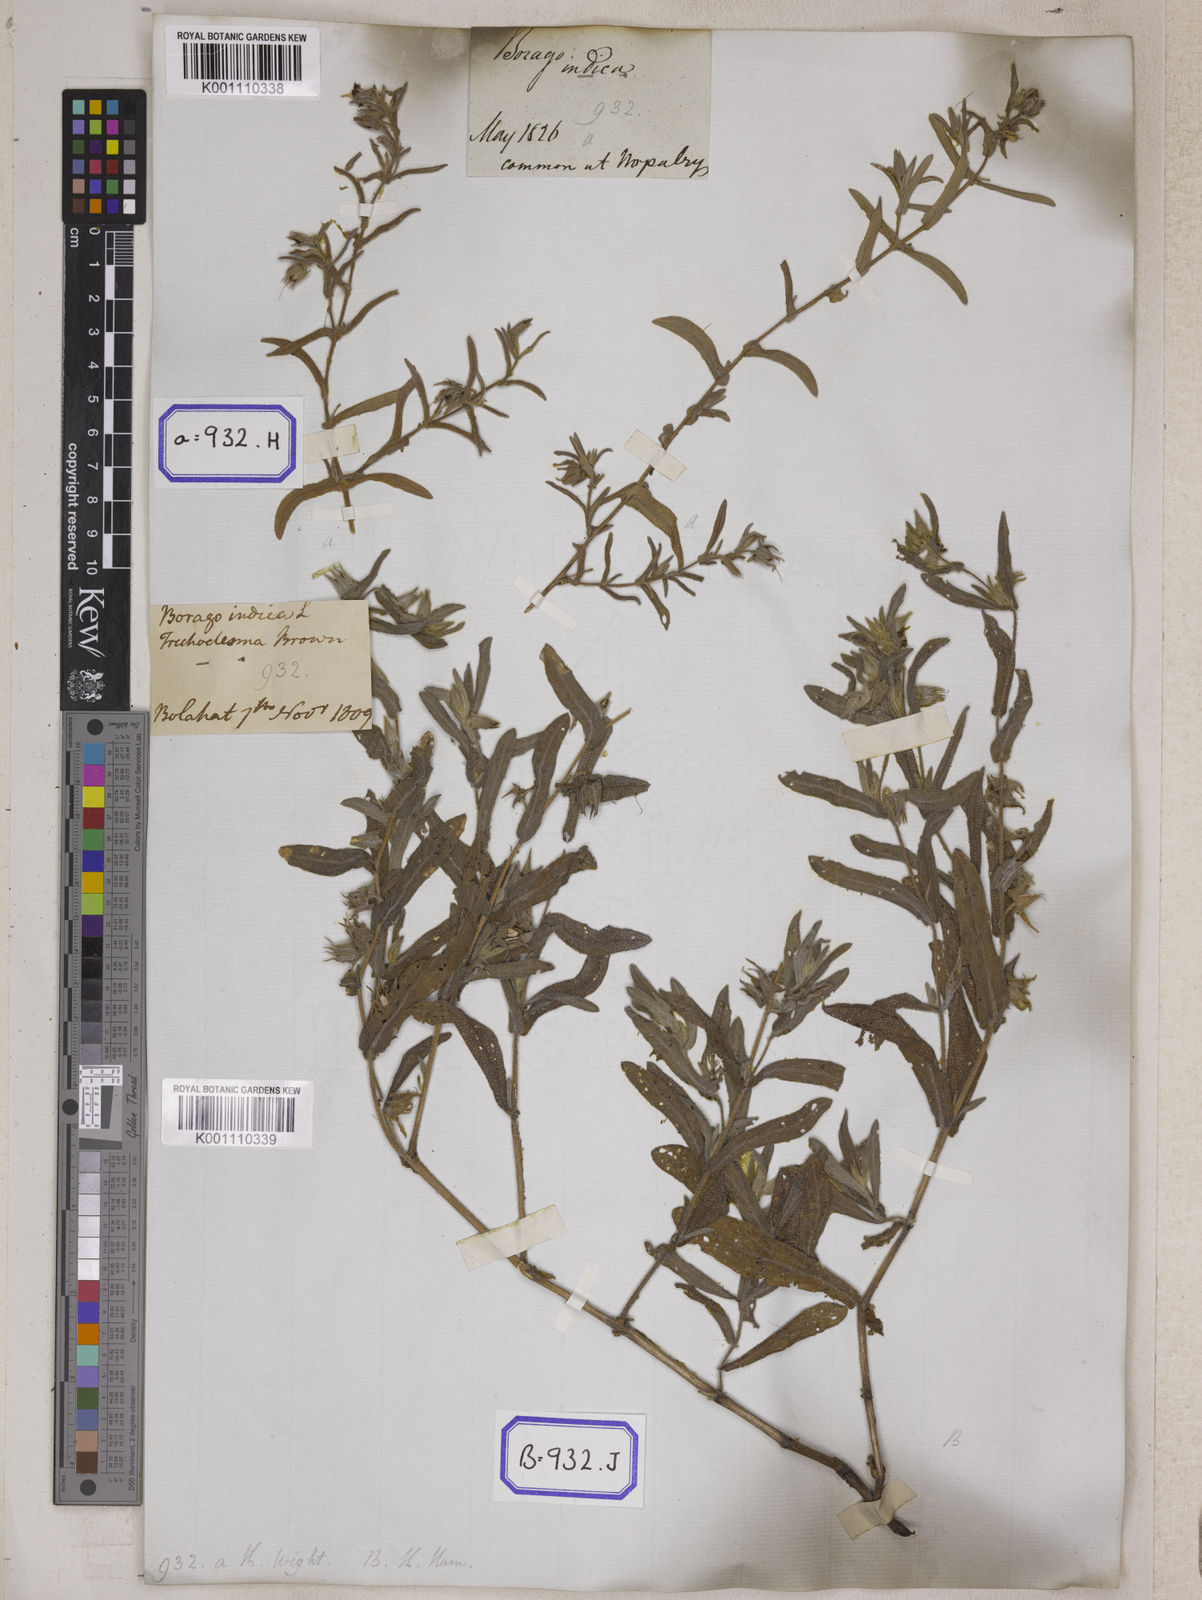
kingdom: Plantae
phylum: Tracheophyta
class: Magnoliopsida
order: Boraginales
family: Boraginaceae
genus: Trichodesma
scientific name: Trichodesma
